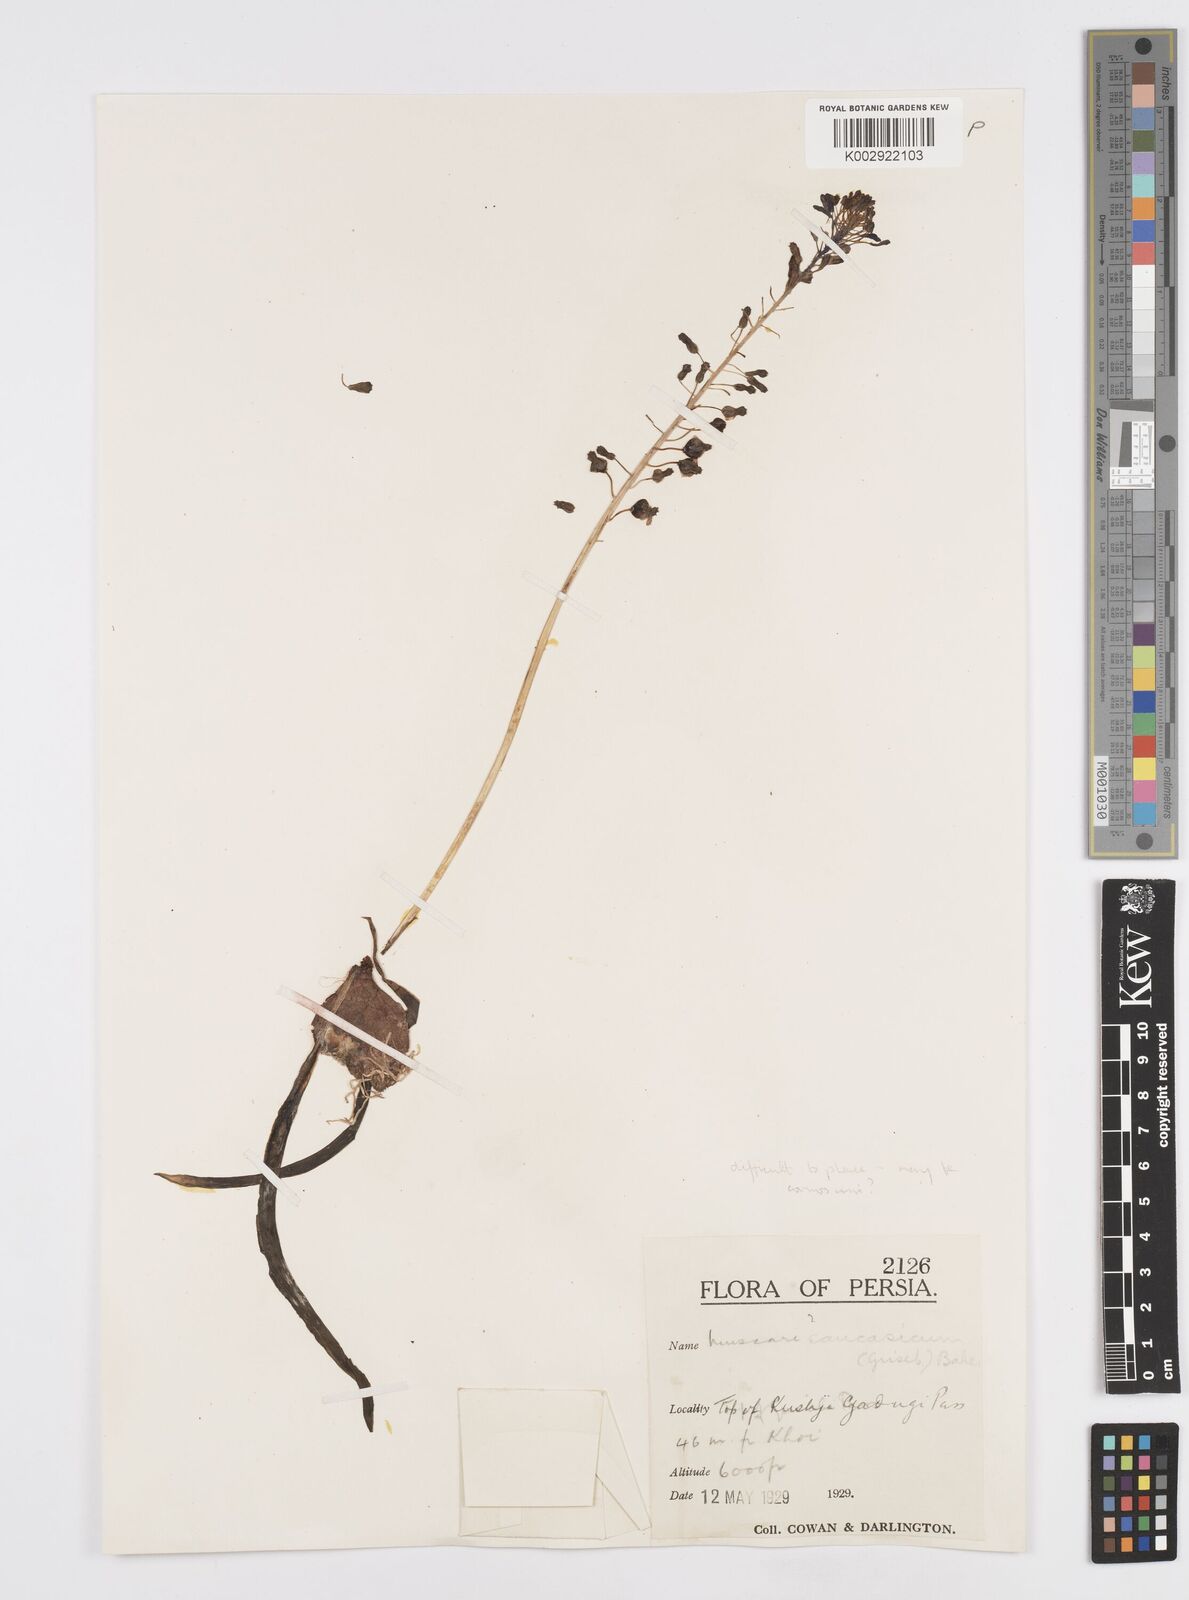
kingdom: Plantae
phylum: Tracheophyta
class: Liliopsida
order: Asparagales
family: Asparagaceae
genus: Muscari
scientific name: Muscari caucasicum
